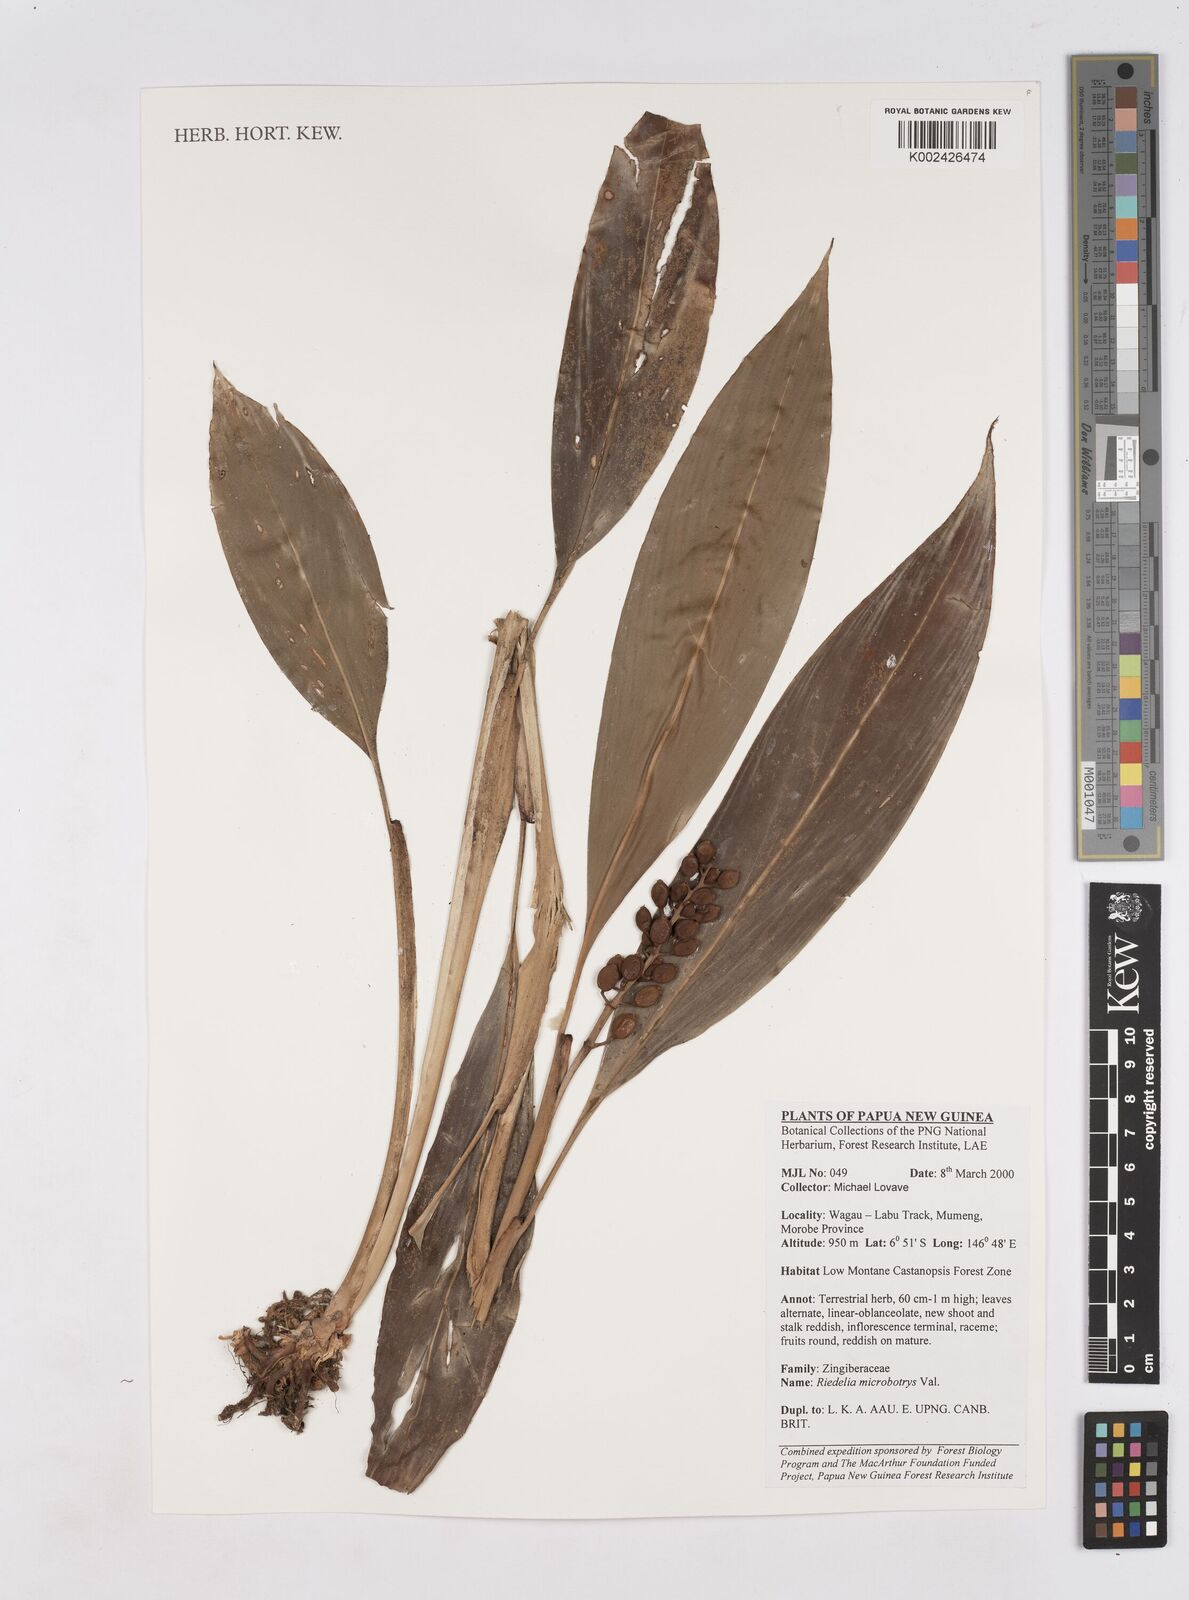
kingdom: Plantae
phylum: Tracheophyta
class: Liliopsida
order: Zingiberales
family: Zingiberaceae
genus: Riedelia
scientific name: Riedelia microbotrya
